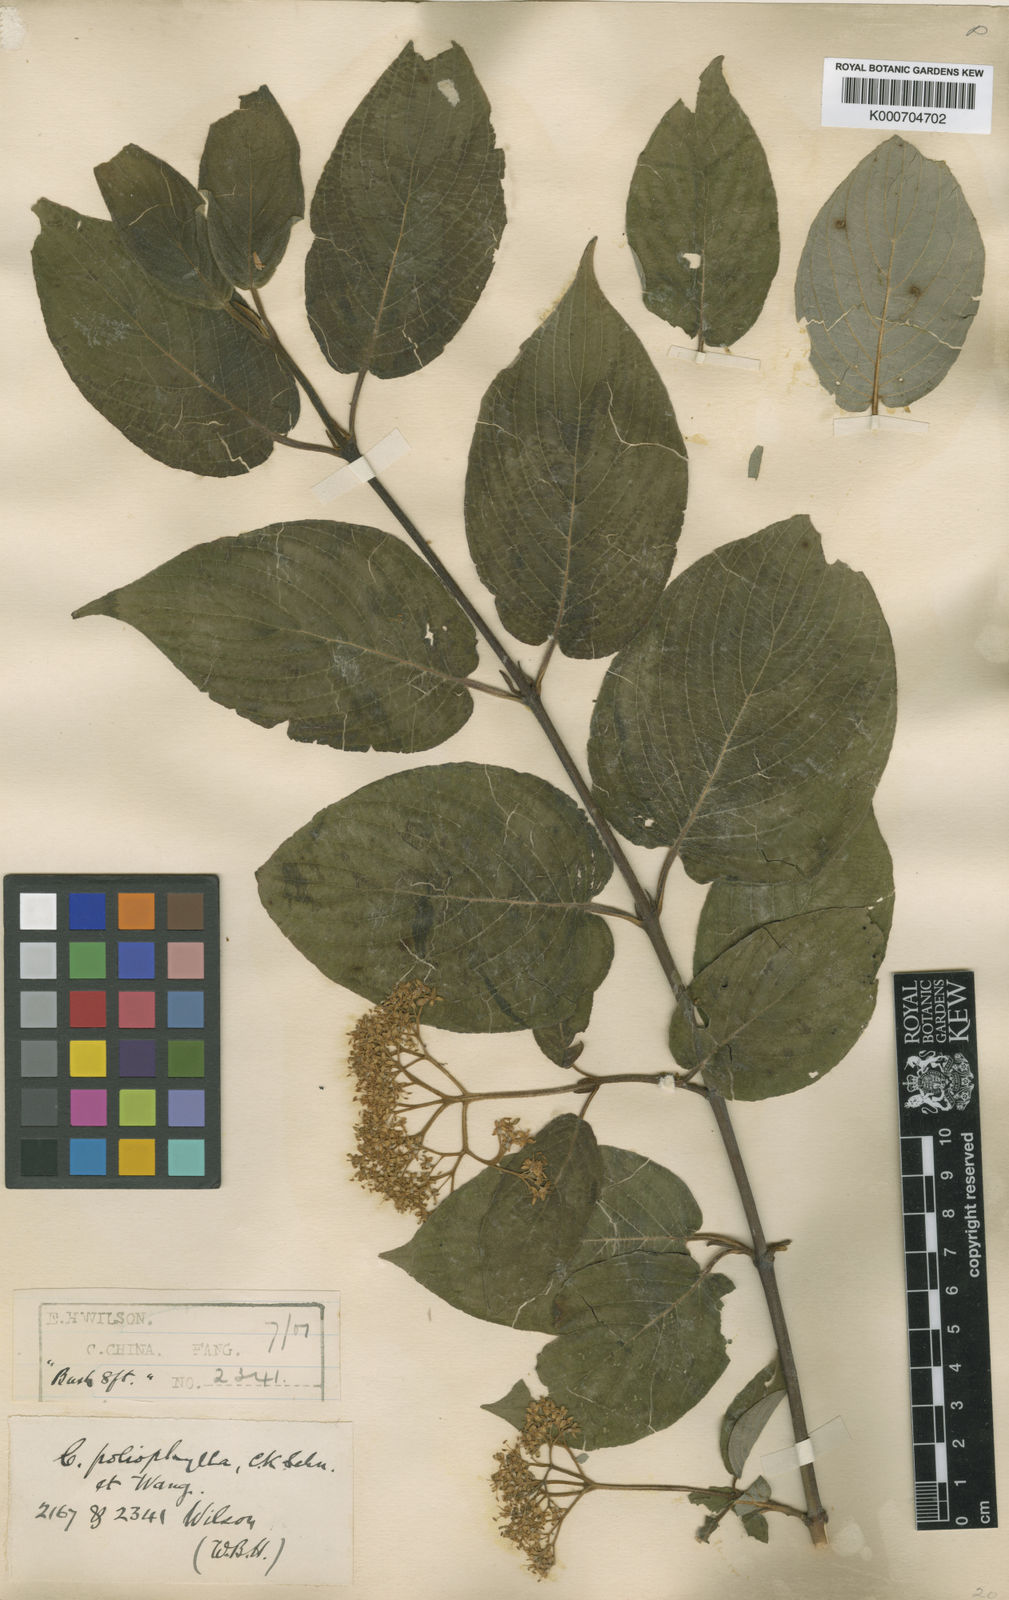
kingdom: Plantae
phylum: Tracheophyta
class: Magnoliopsida
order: Cornales
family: Cornaceae
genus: Cornus
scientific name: Cornus schindleri
